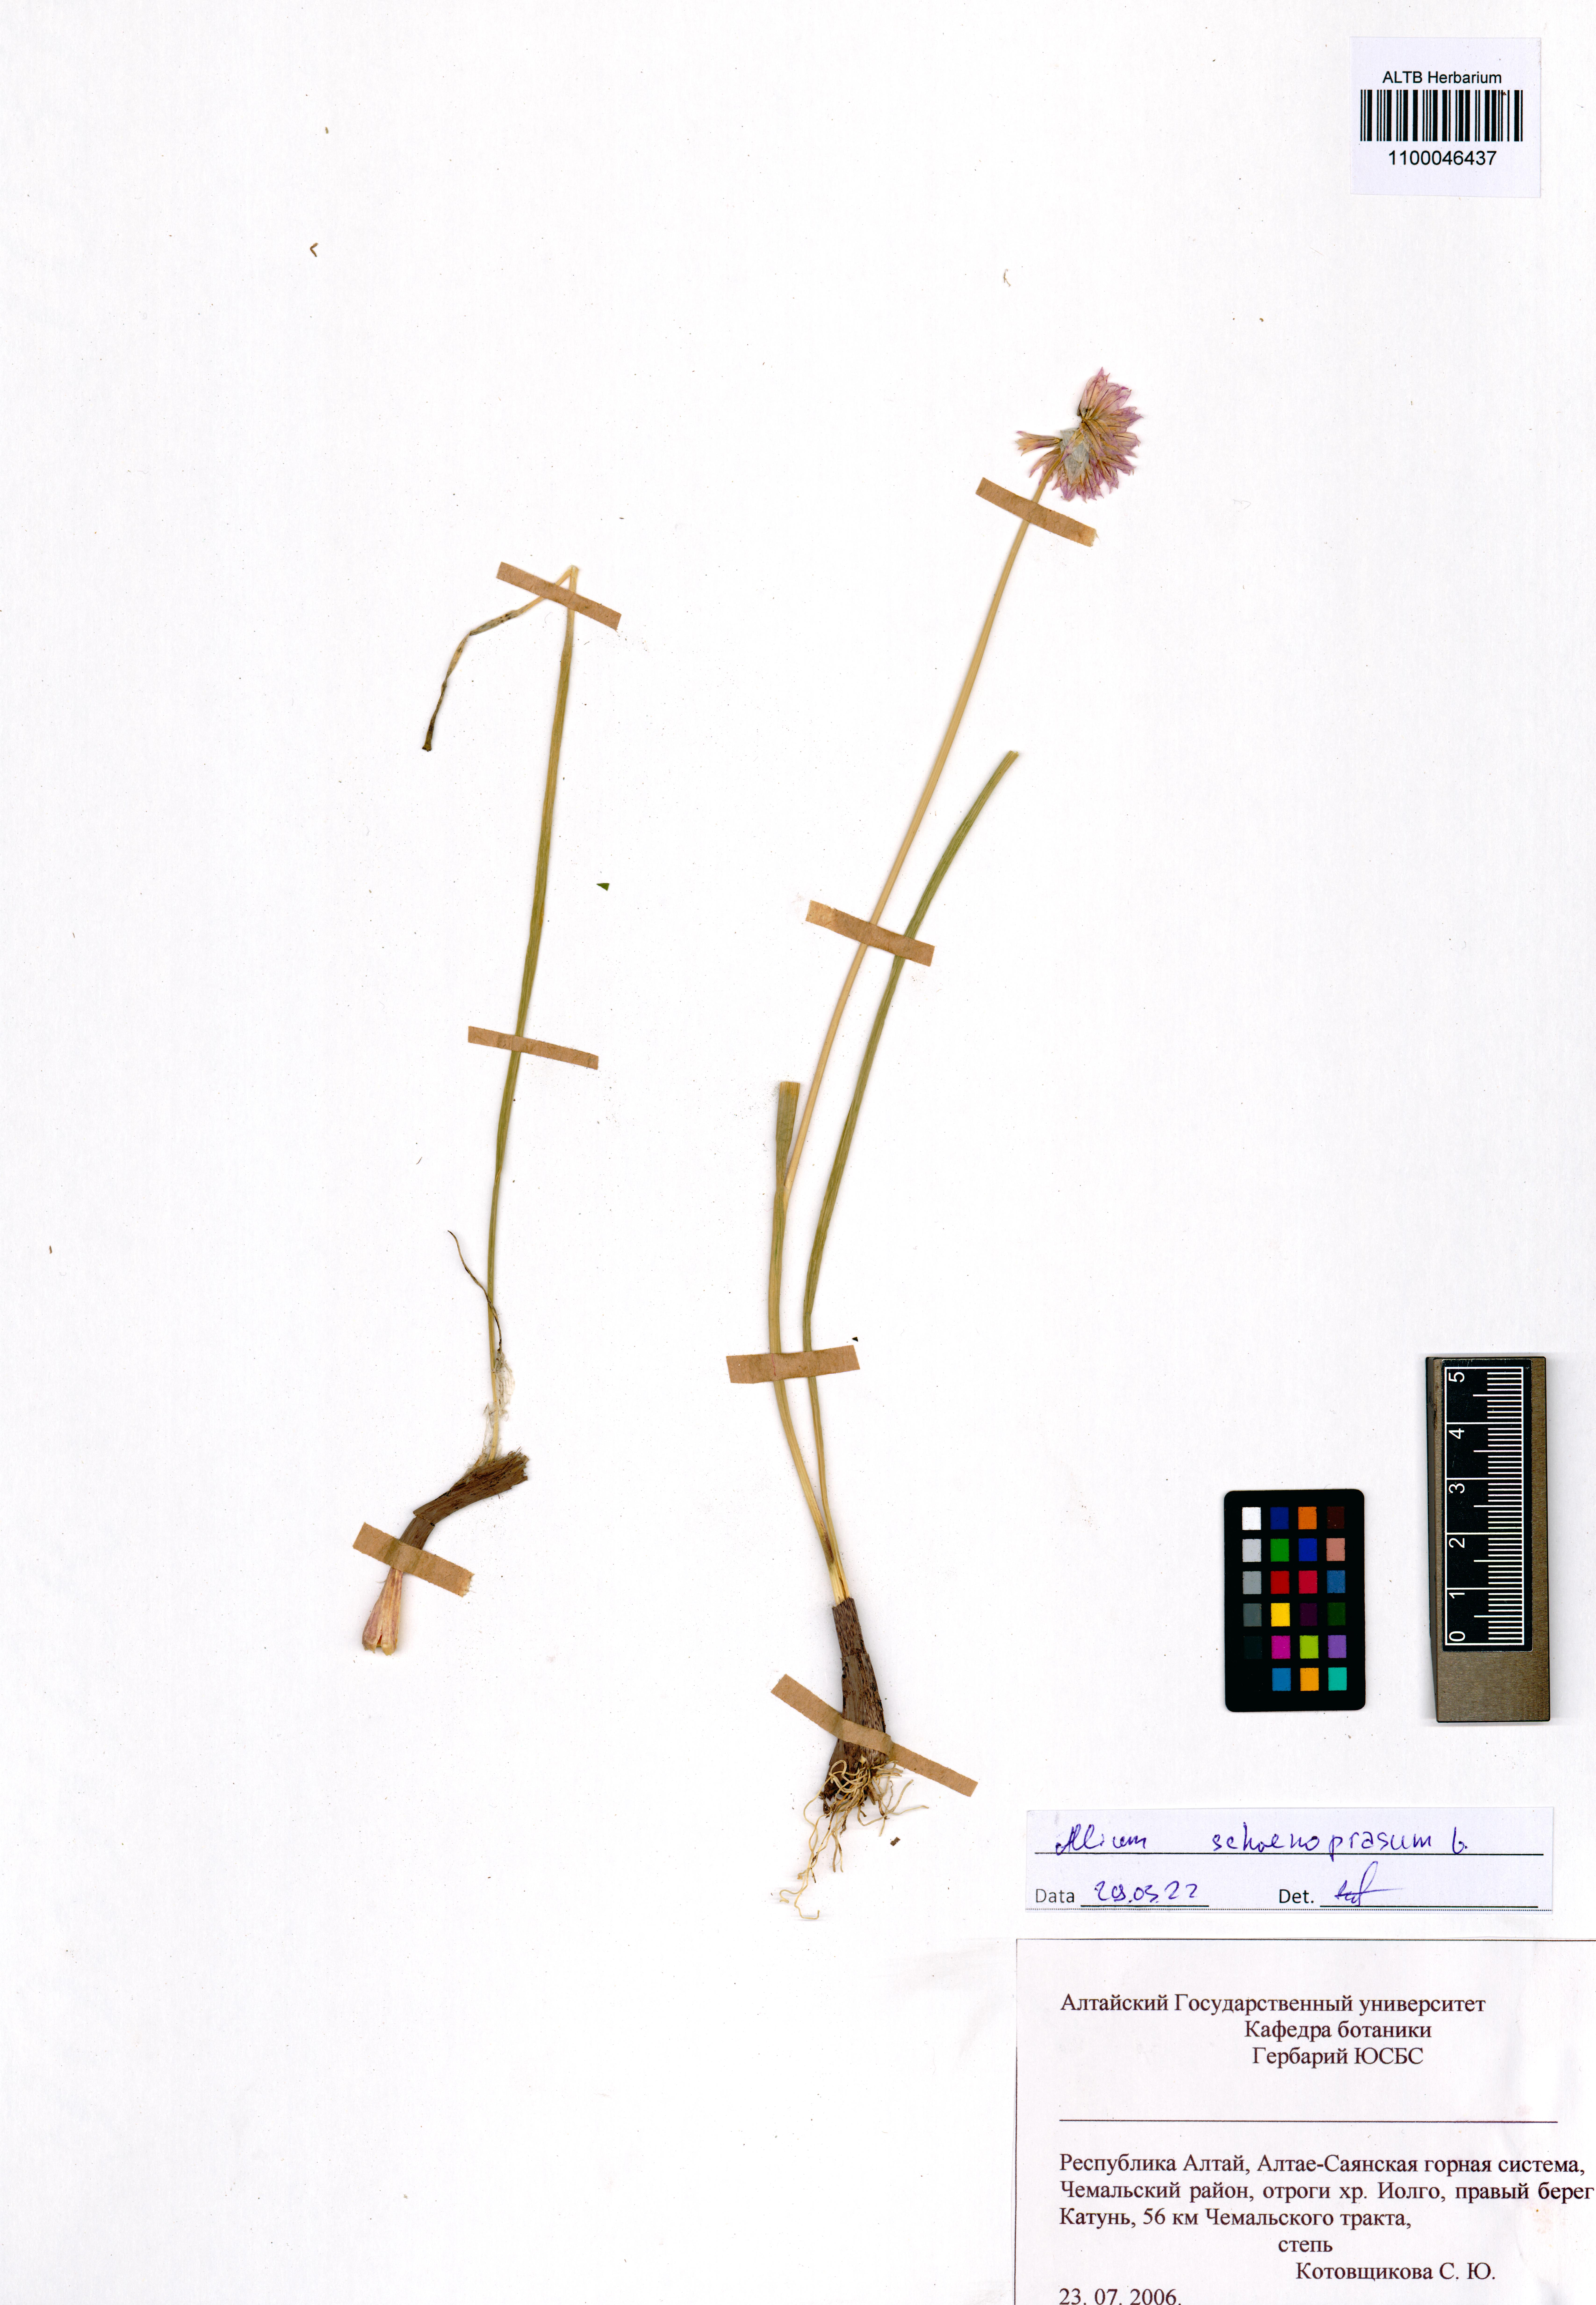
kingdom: Plantae
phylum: Tracheophyta
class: Liliopsida
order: Asparagales
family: Amaryllidaceae
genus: Allium
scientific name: Allium schoenoprasum
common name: Chives
